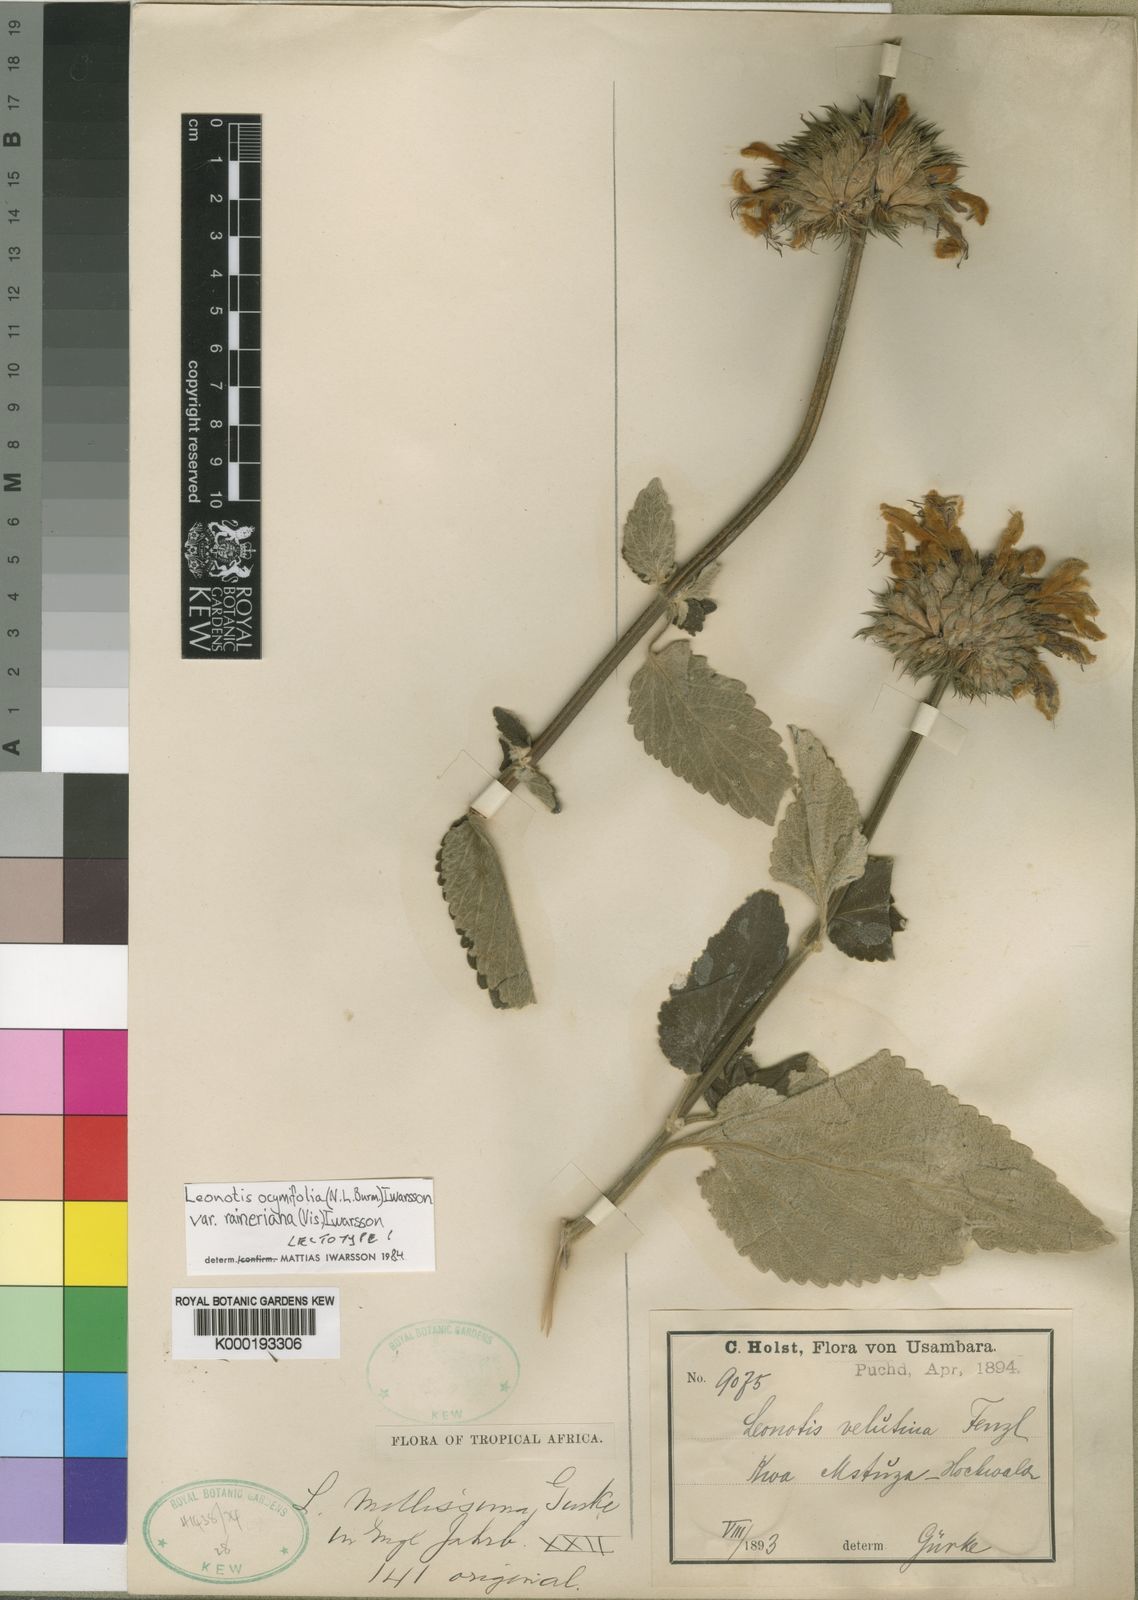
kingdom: Plantae
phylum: Tracheophyta
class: Magnoliopsida
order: Lamiales
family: Lamiaceae
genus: Leonotis
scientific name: Leonotis
